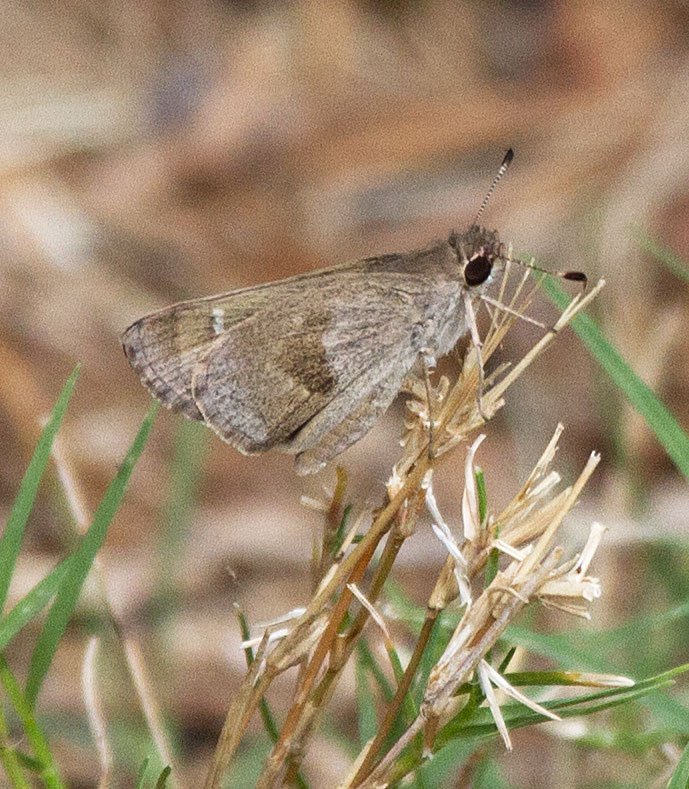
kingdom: Animalia
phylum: Arthropoda
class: Insecta
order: Lepidoptera
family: Hesperiidae
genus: Lerodea
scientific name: Lerodea arabus
